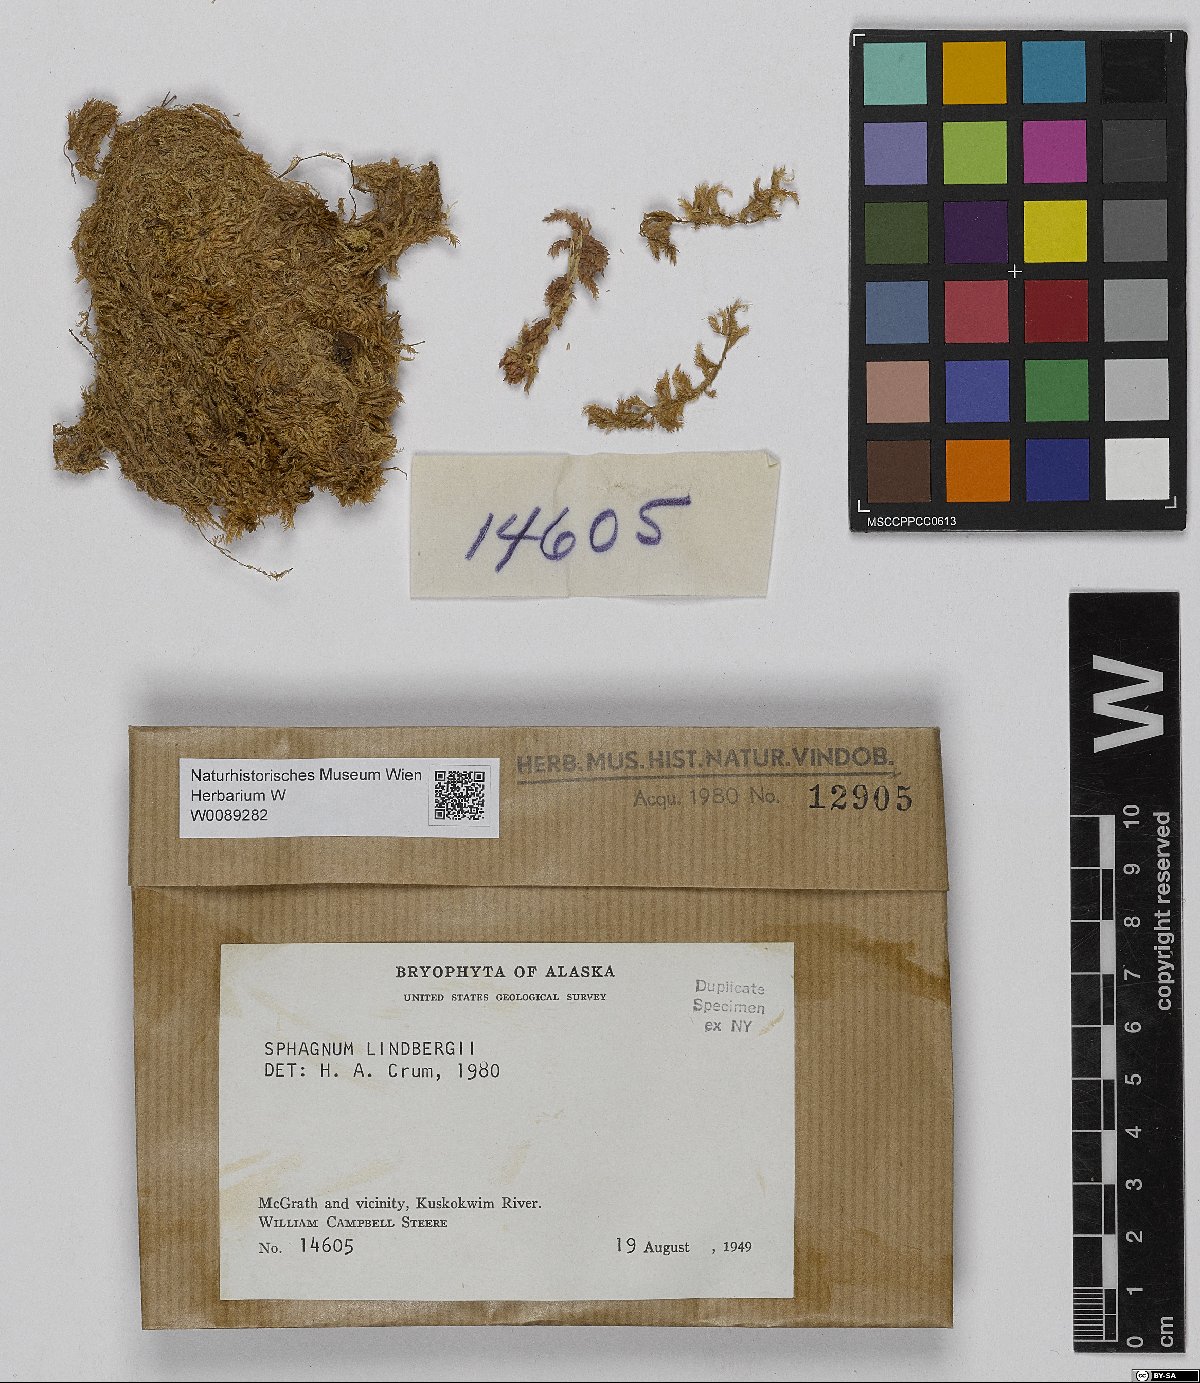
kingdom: Plantae
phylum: Bryophyta
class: Sphagnopsida
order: Sphagnales
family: Sphagnaceae
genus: Sphagnum
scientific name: Sphagnum lindbergii
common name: Lindberg's peat moss
